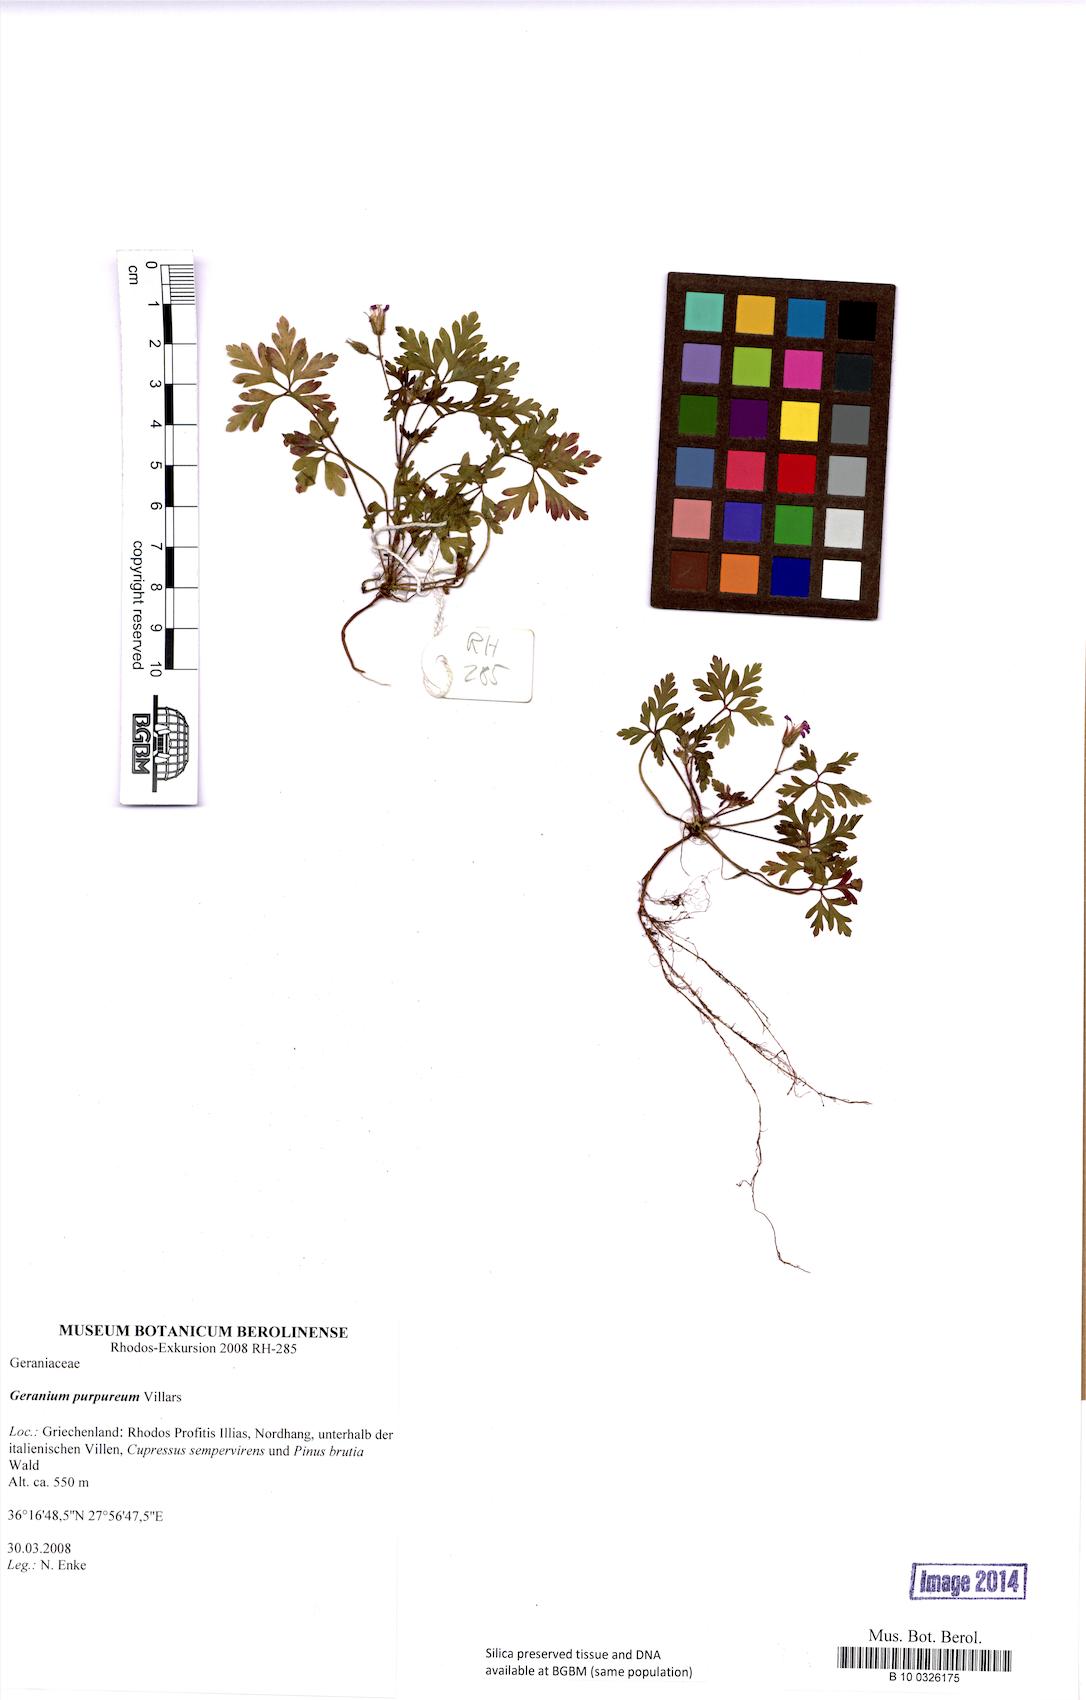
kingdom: Plantae
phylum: Tracheophyta
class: Magnoliopsida
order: Geraniales
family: Geraniaceae
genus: Geranium
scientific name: Geranium purpureum
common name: Little-robin
